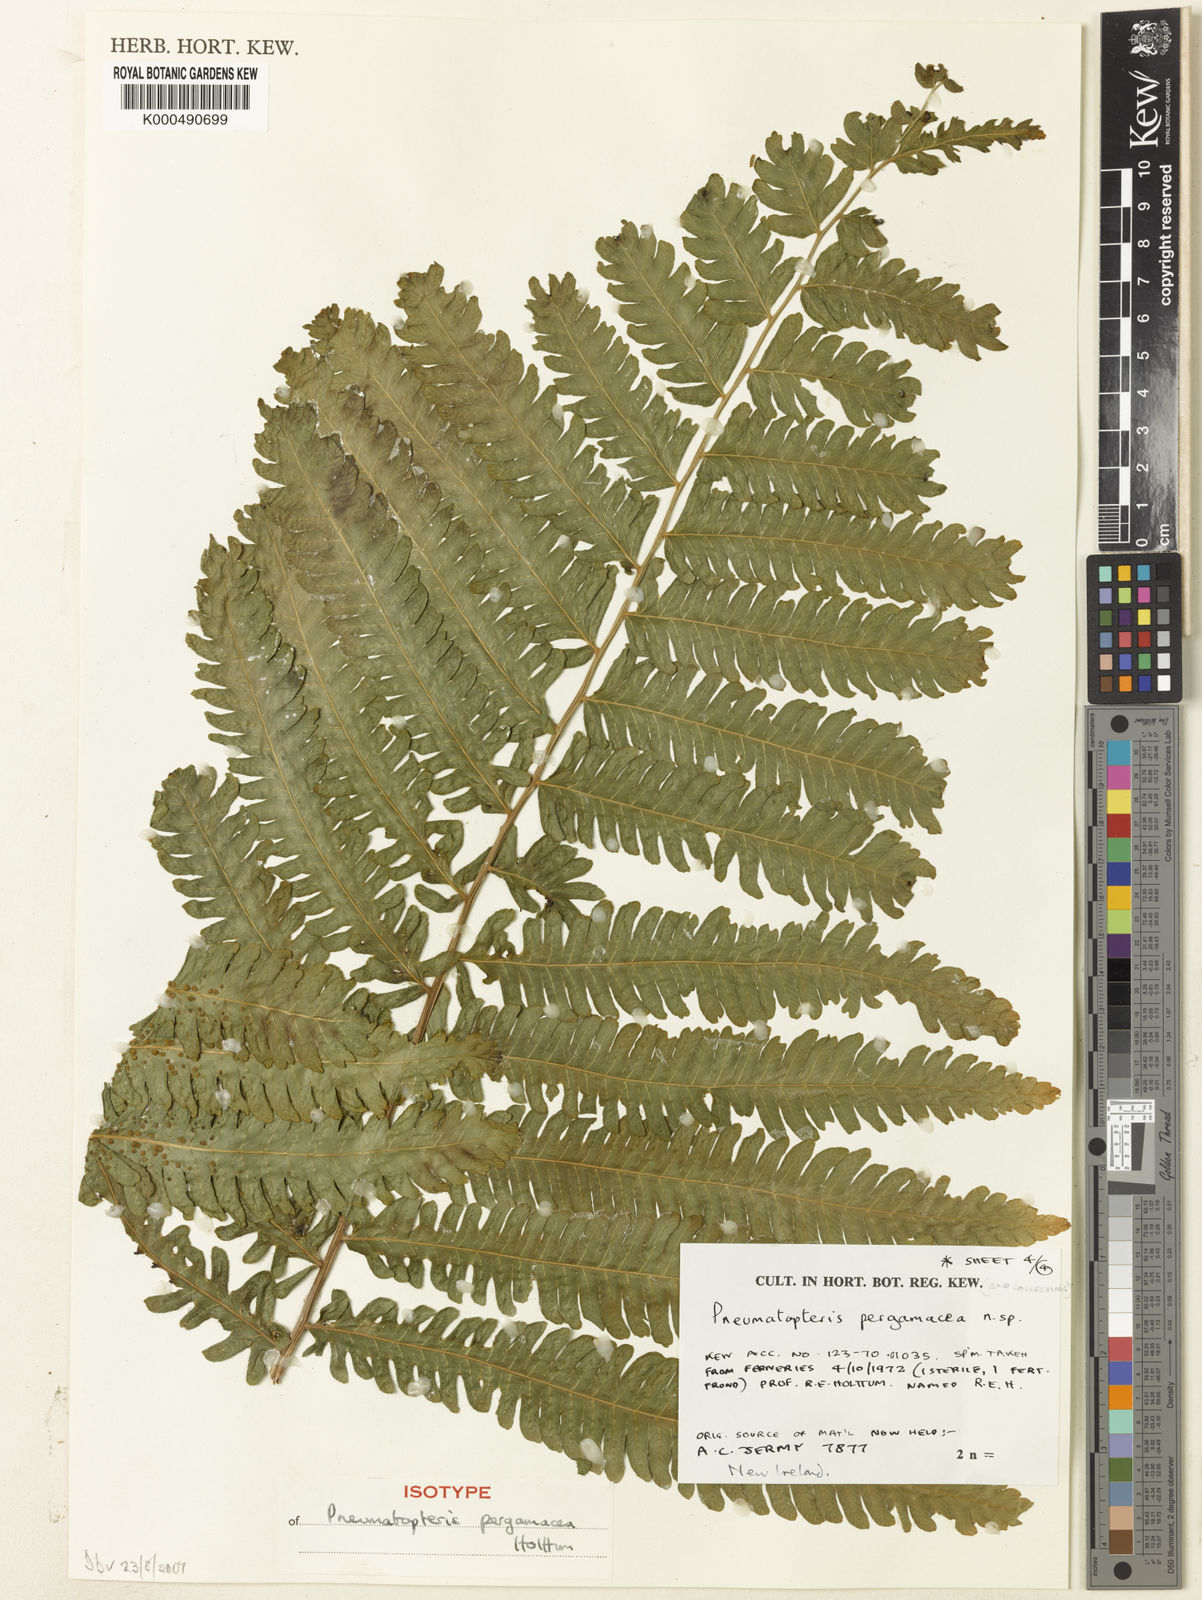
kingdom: Plantae
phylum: Tracheophyta
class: Polypodiopsida
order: Polypodiales
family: Thelypteridaceae
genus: Reholttumia
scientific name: Reholttumia pergamacea
